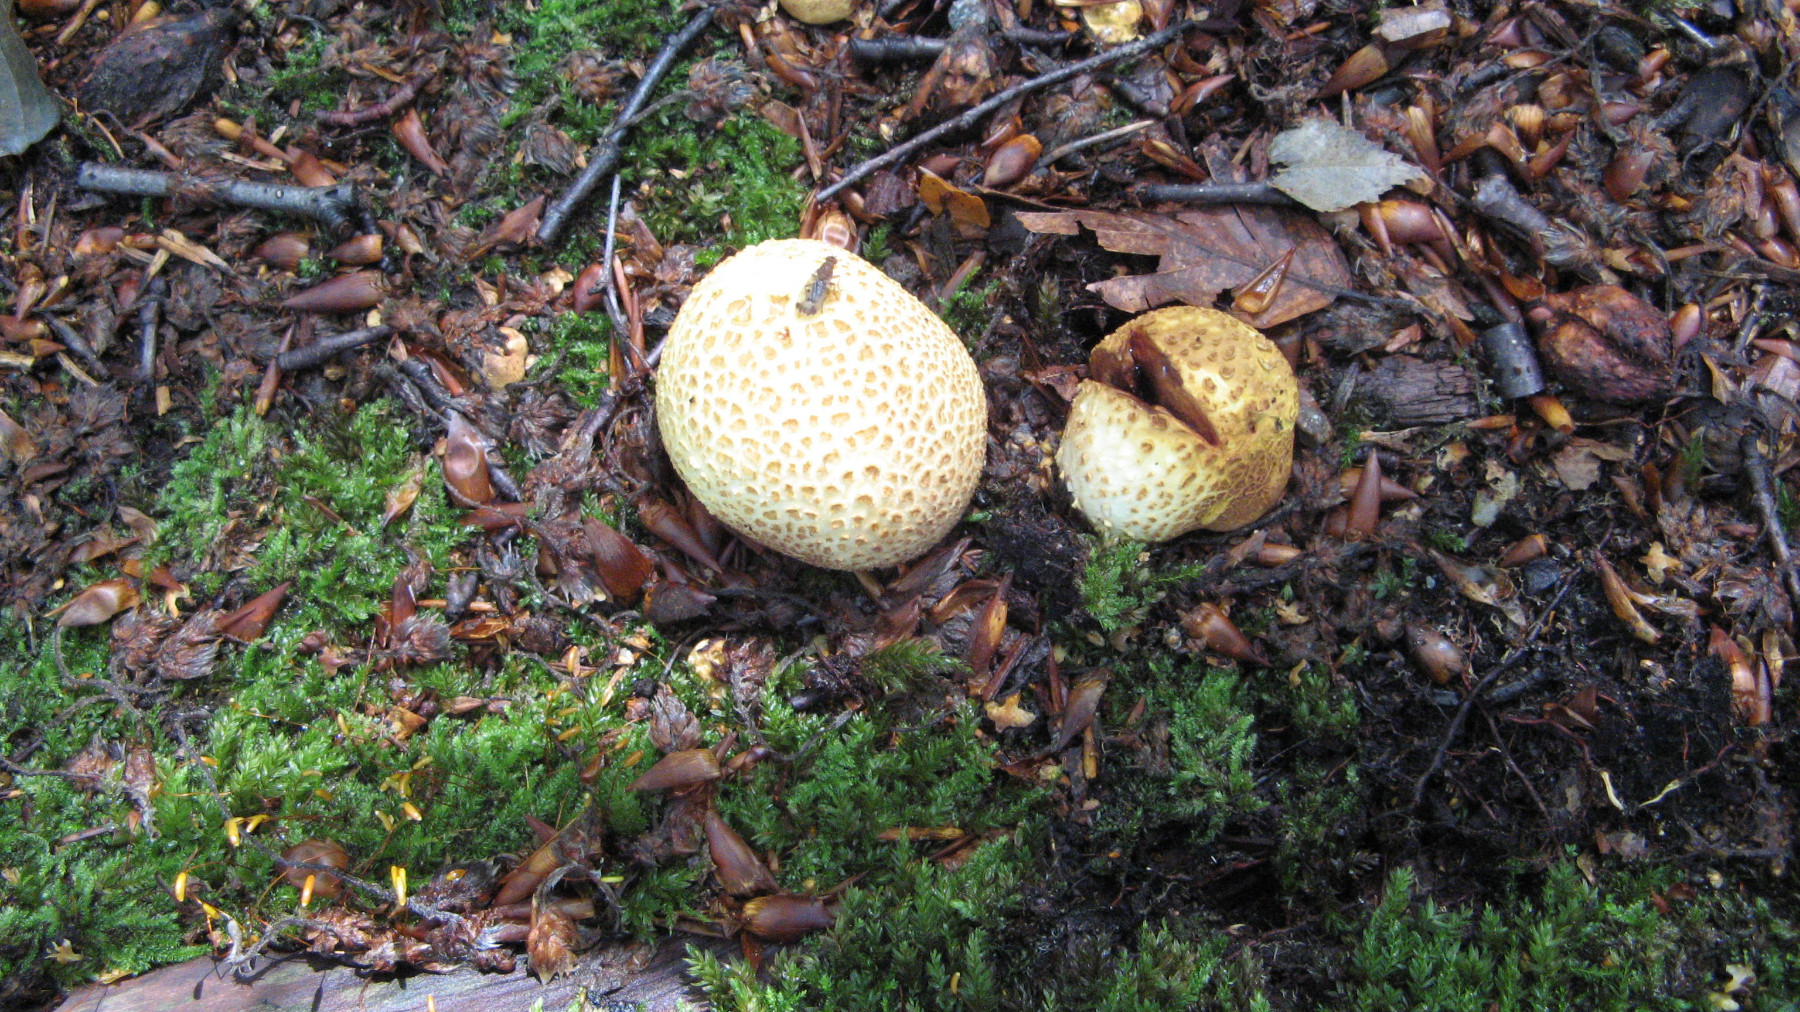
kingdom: Fungi
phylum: Basidiomycota
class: Agaricomycetes
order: Boletales
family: Sclerodermataceae
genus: Scleroderma
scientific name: Scleroderma citrinum
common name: almindelig bruskbold
